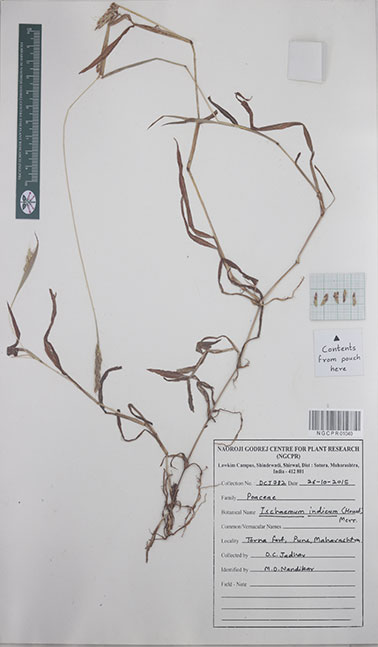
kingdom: Plantae
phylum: Tracheophyta
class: Liliopsida
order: Poales
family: Poaceae
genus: Polytrias
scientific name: Polytrias indica
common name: Indian murainagrass
